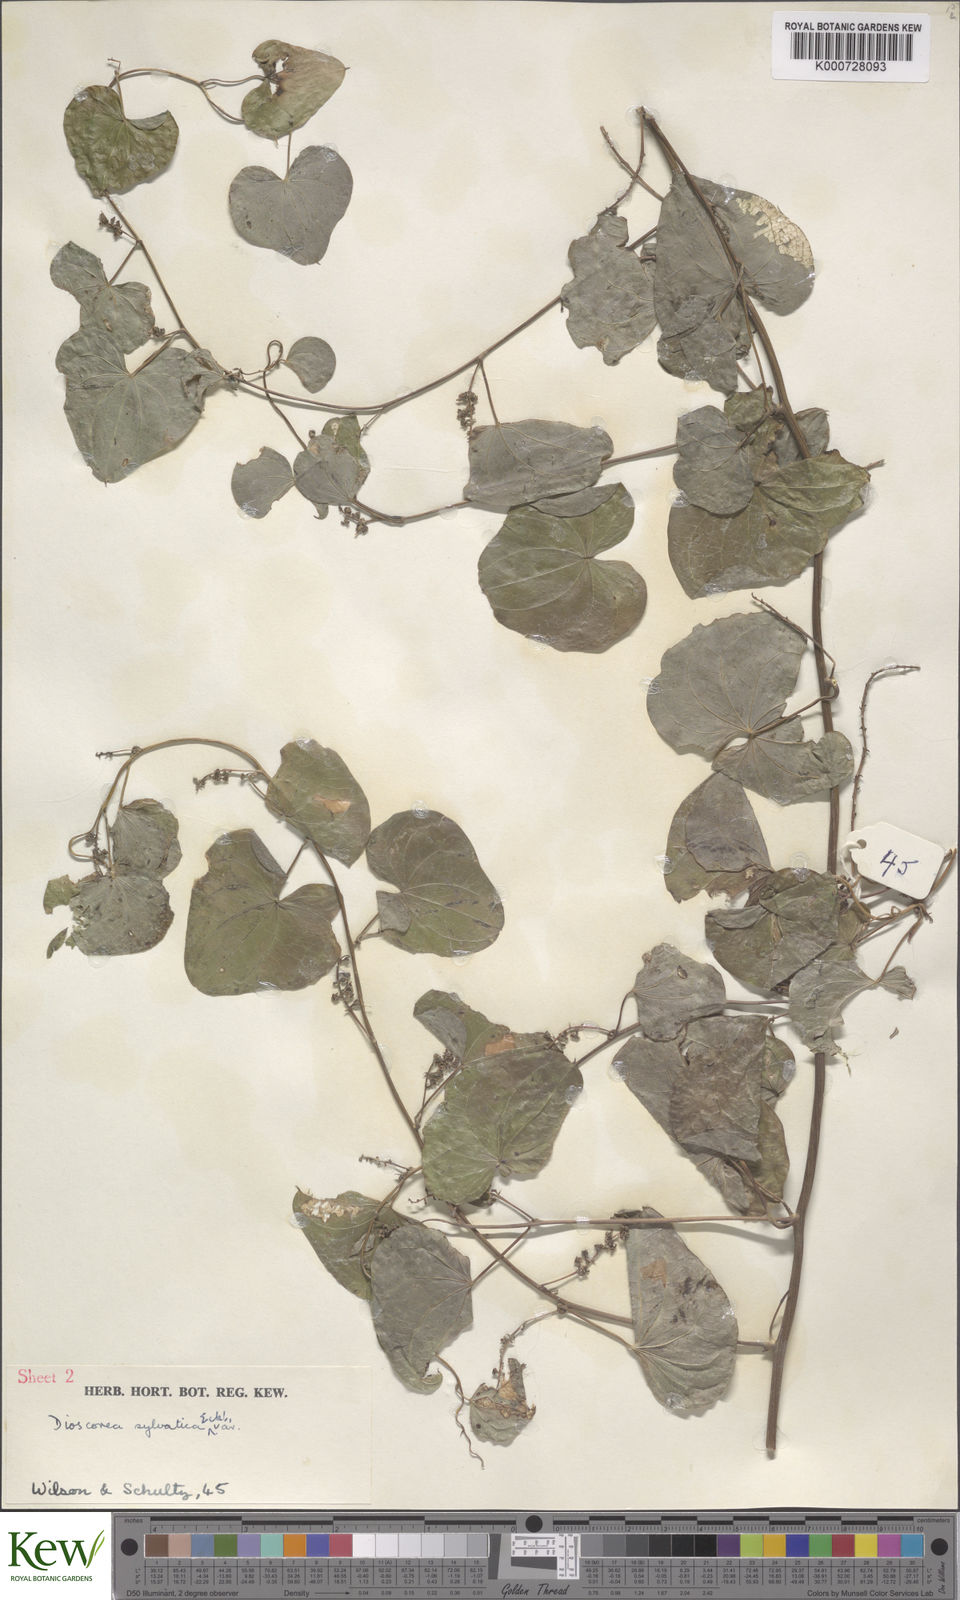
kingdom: Plantae
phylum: Tracheophyta
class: Liliopsida
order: Dioscoreales
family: Dioscoreaceae
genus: Dioscorea
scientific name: Dioscorea sylvatica
